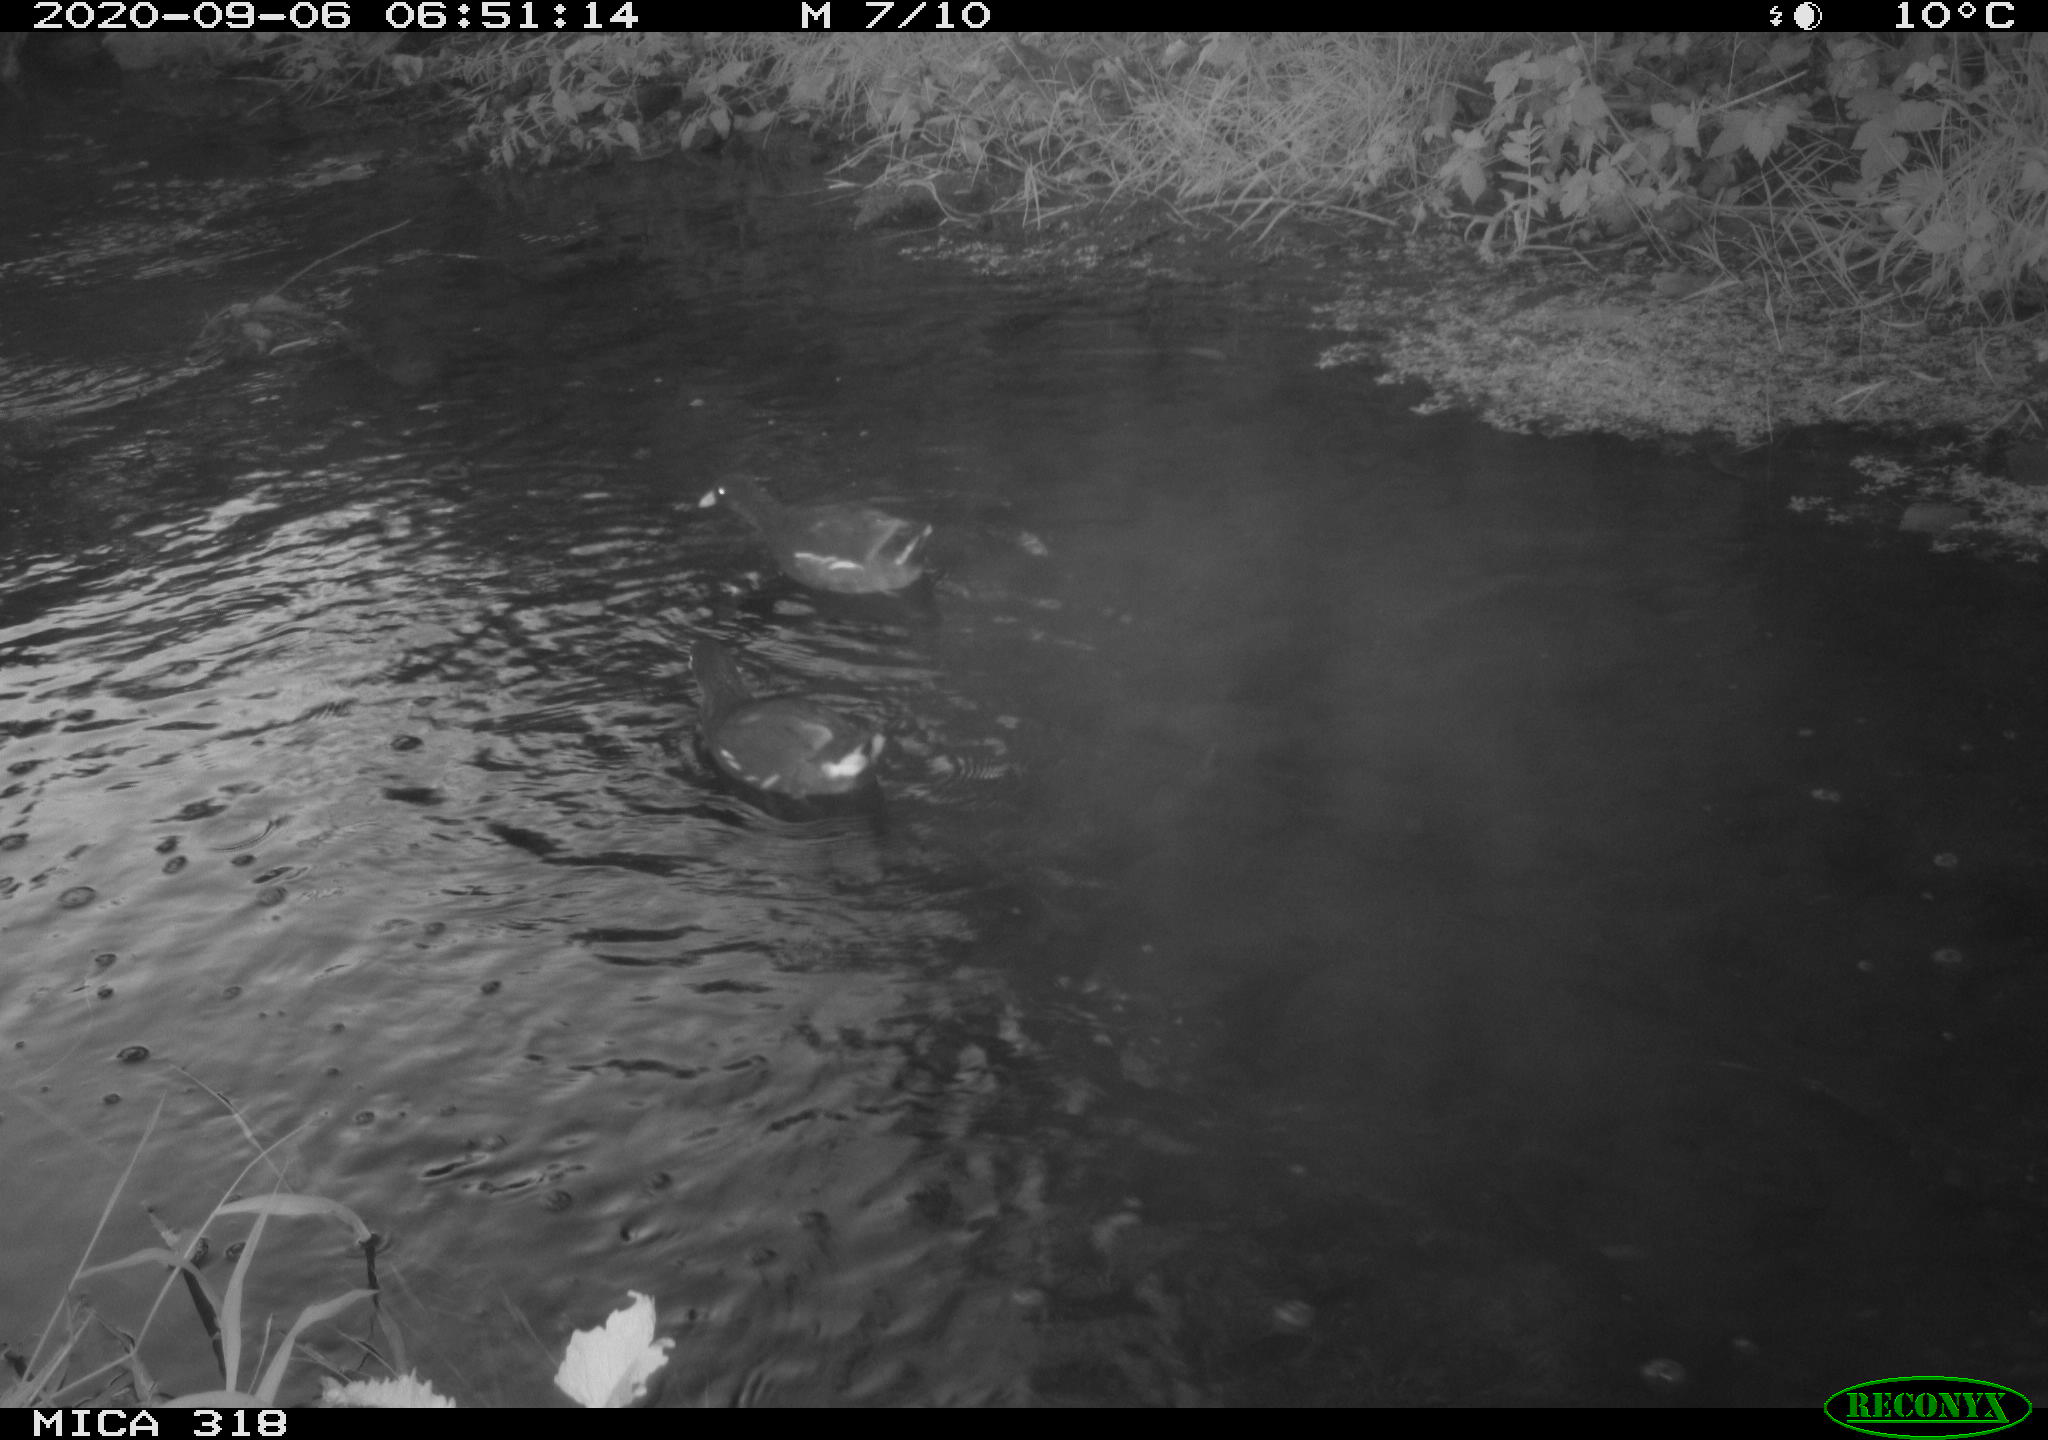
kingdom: Animalia
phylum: Chordata
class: Aves
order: Gruiformes
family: Rallidae
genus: Gallinula
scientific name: Gallinula chloropus
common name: Common moorhen
